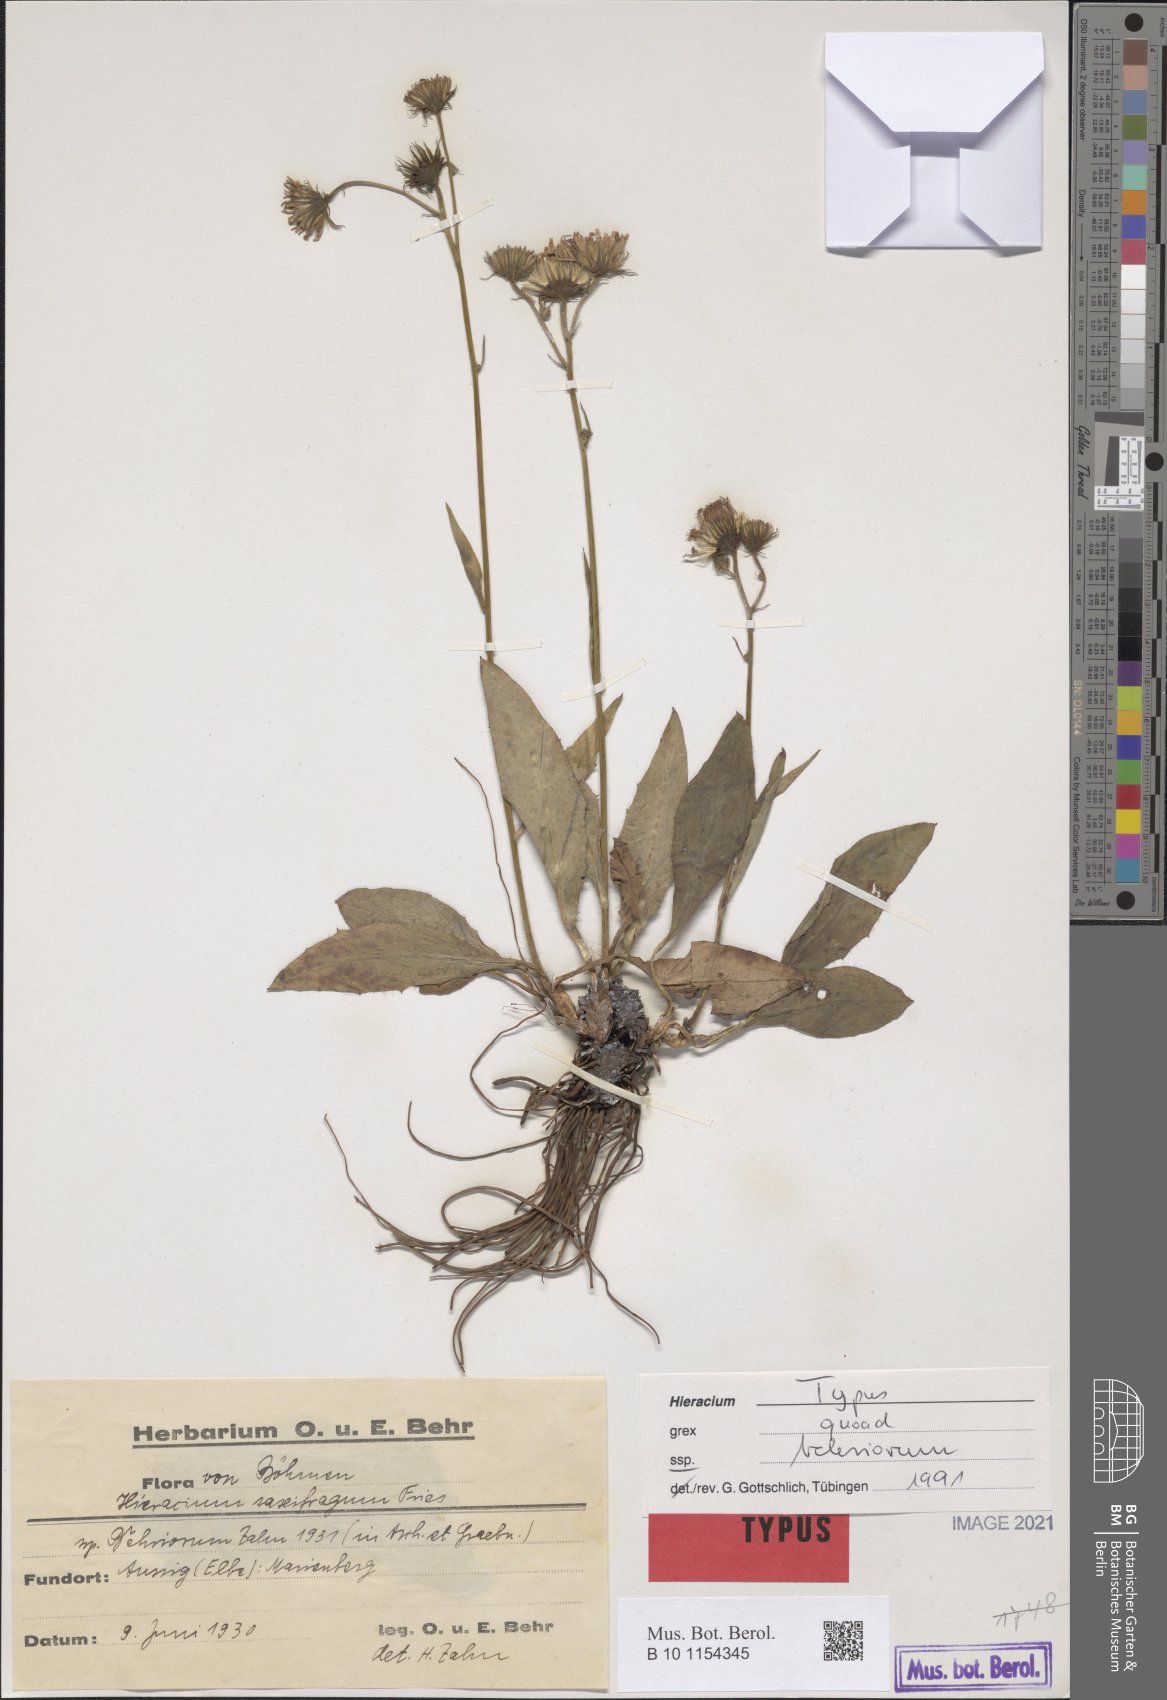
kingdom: Plantae
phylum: Tracheophyta
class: Magnoliopsida
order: Asterales
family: Asteraceae
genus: Hieracium
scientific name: Hieracium saxifragum
